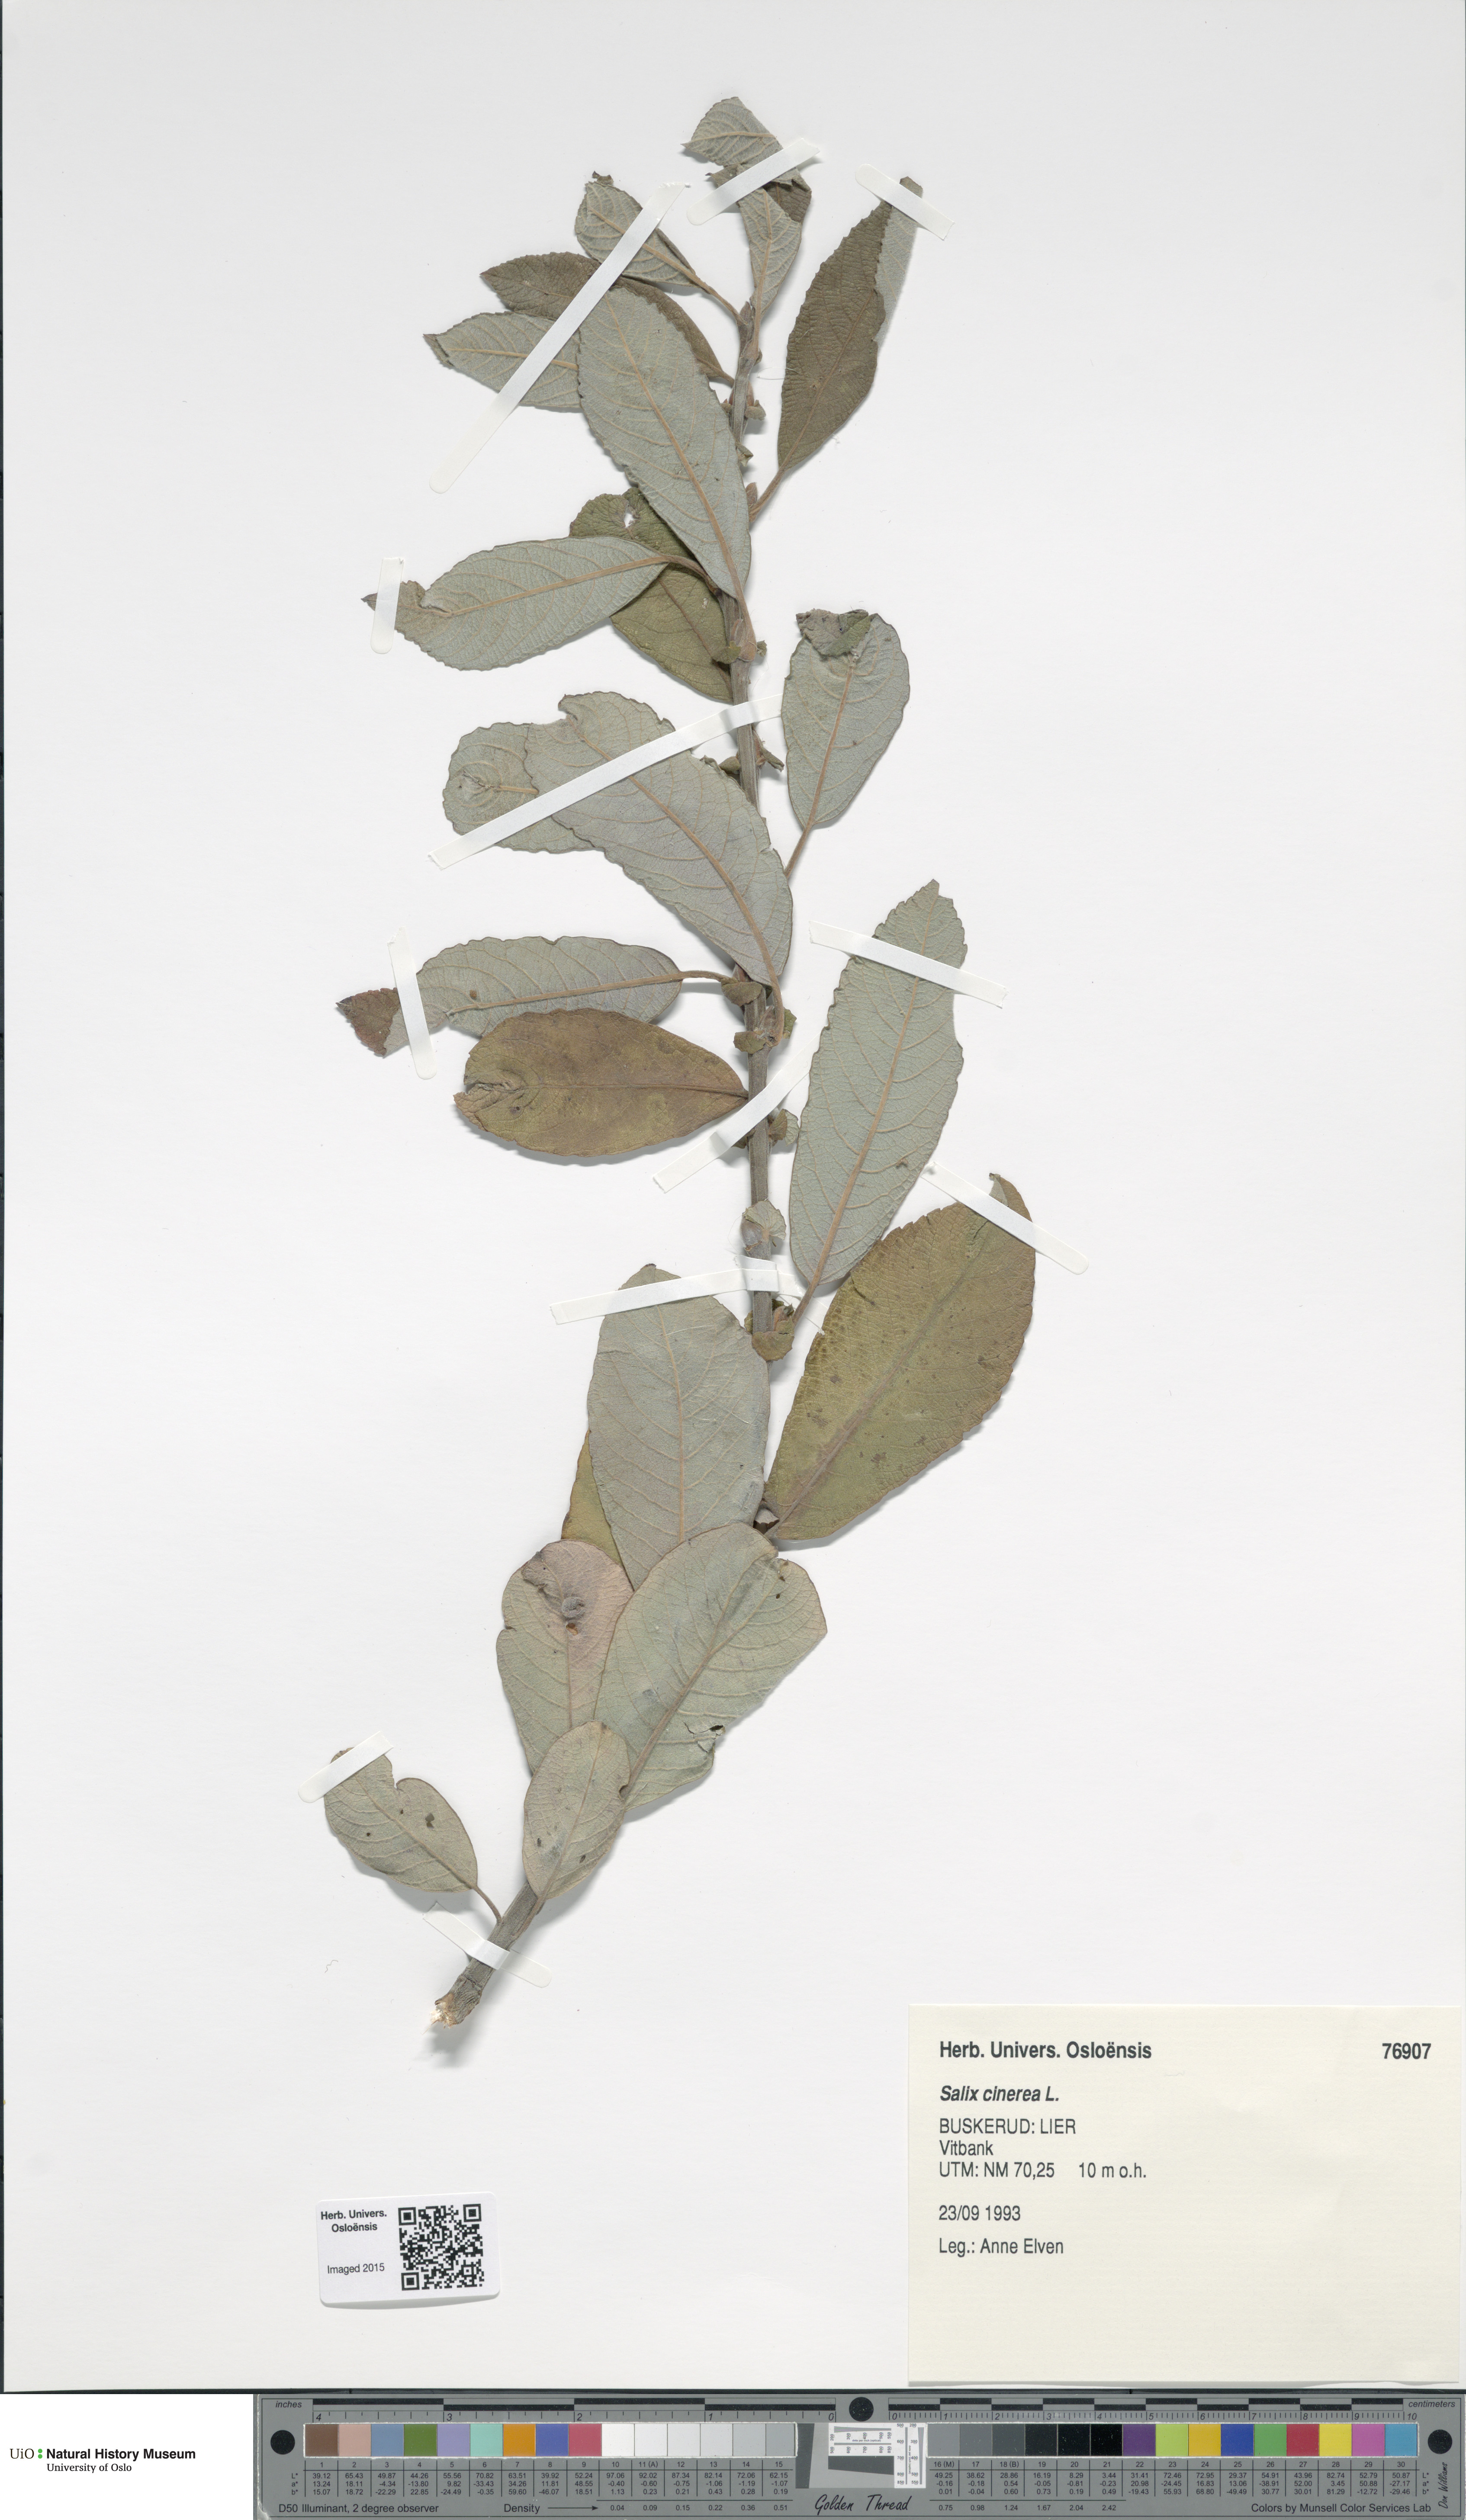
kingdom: Plantae
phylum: Tracheophyta
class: Magnoliopsida
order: Malpighiales
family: Salicaceae
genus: Salix
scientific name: Salix cinerea
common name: Common sallow
